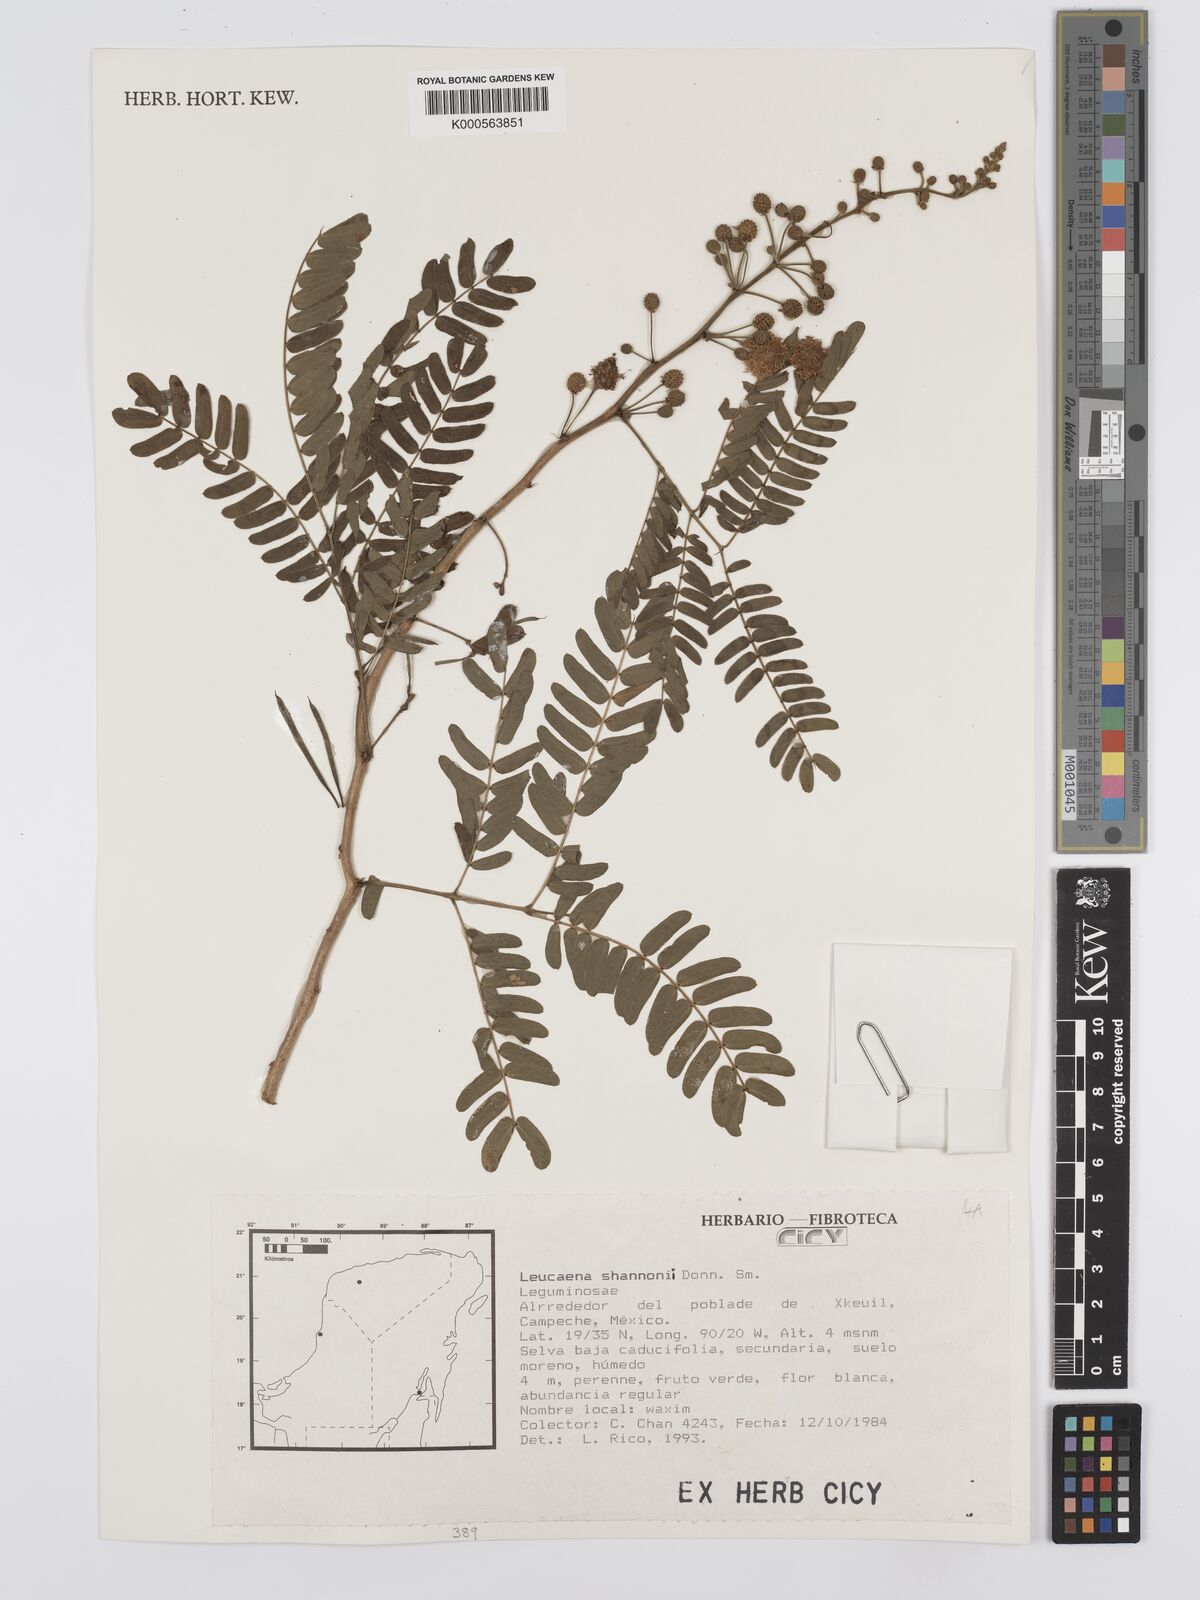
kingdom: Plantae
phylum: Tracheophyta
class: Magnoliopsida
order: Fabales
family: Fabaceae
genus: Leucaena
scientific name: Leucaena shannonii
